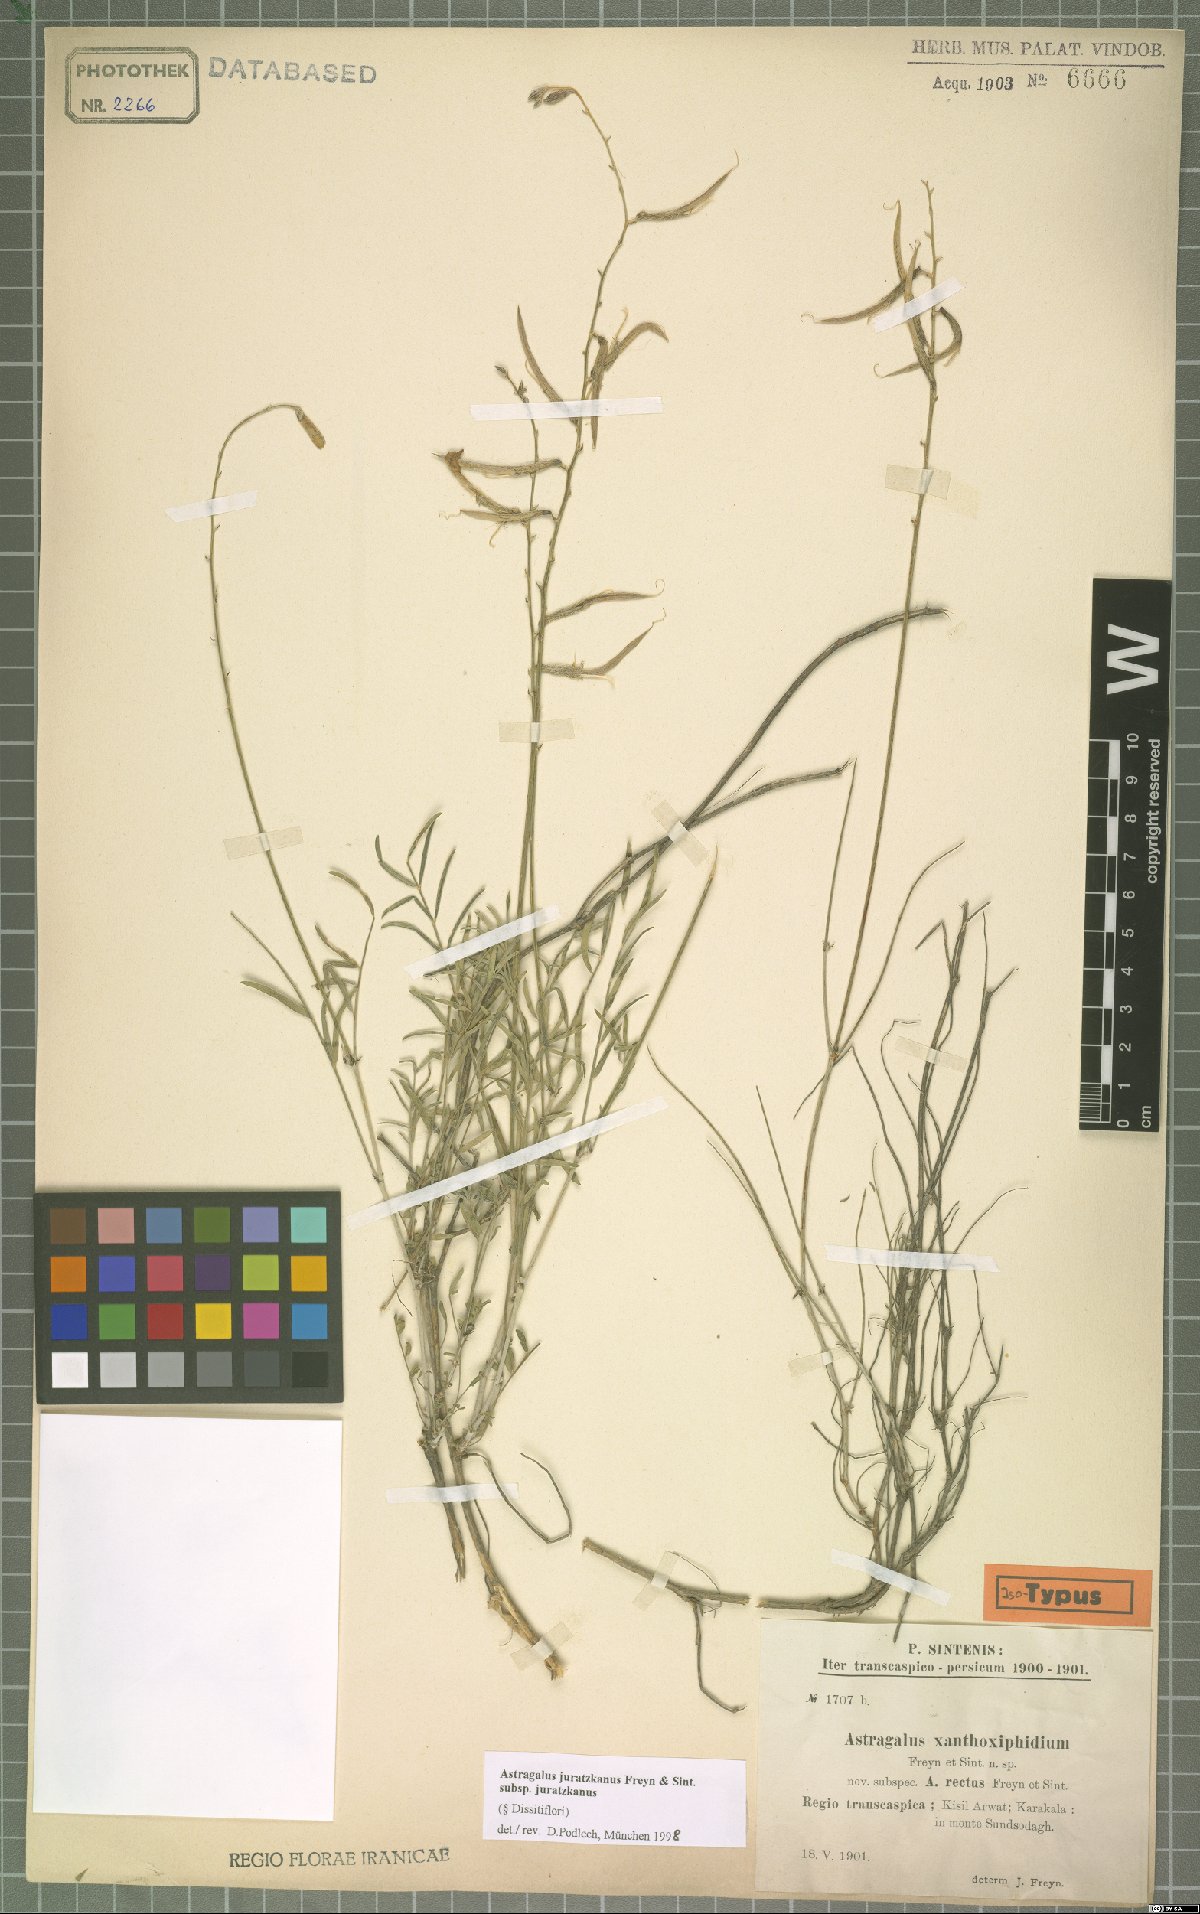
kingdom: Plantae
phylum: Tracheophyta
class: Magnoliopsida
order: Fabales
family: Fabaceae
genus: Astragalus
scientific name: Astragalus juratzkanus
